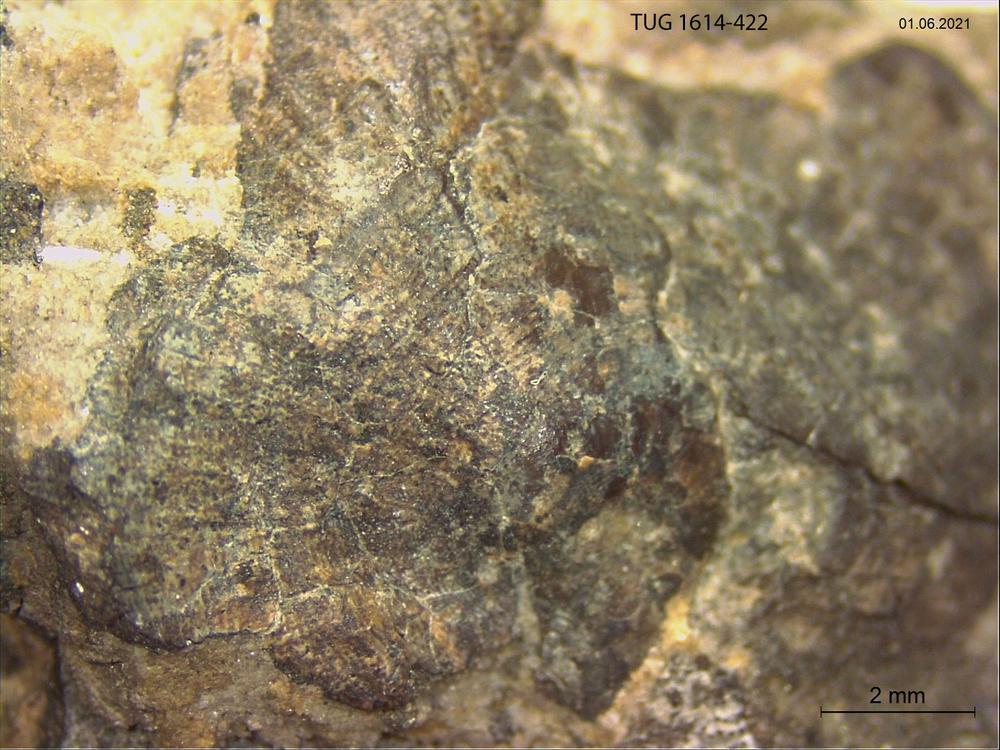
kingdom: Animalia
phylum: Mollusca
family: Scenellidae
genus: Scenella
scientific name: Scenella
